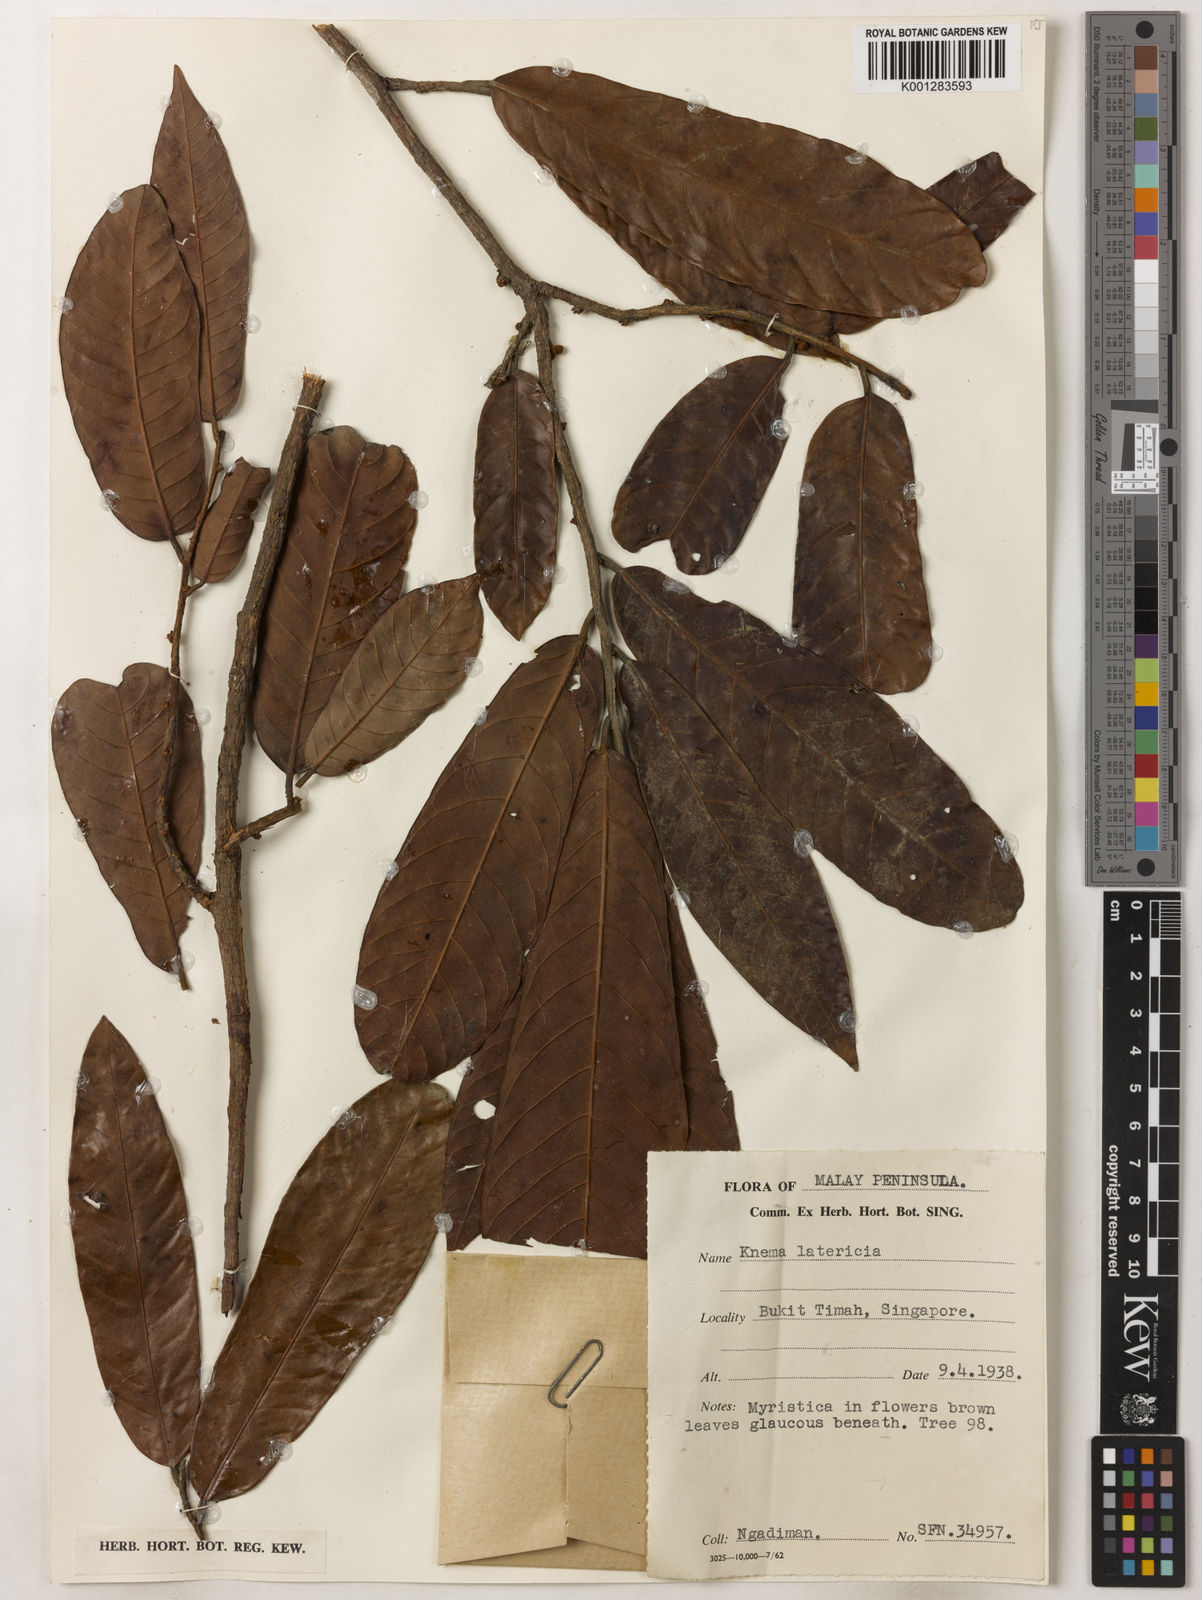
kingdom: Plantae
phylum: Tracheophyta
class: Magnoliopsida
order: Magnoliales
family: Myristicaceae
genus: Knema
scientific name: Knema latericia
